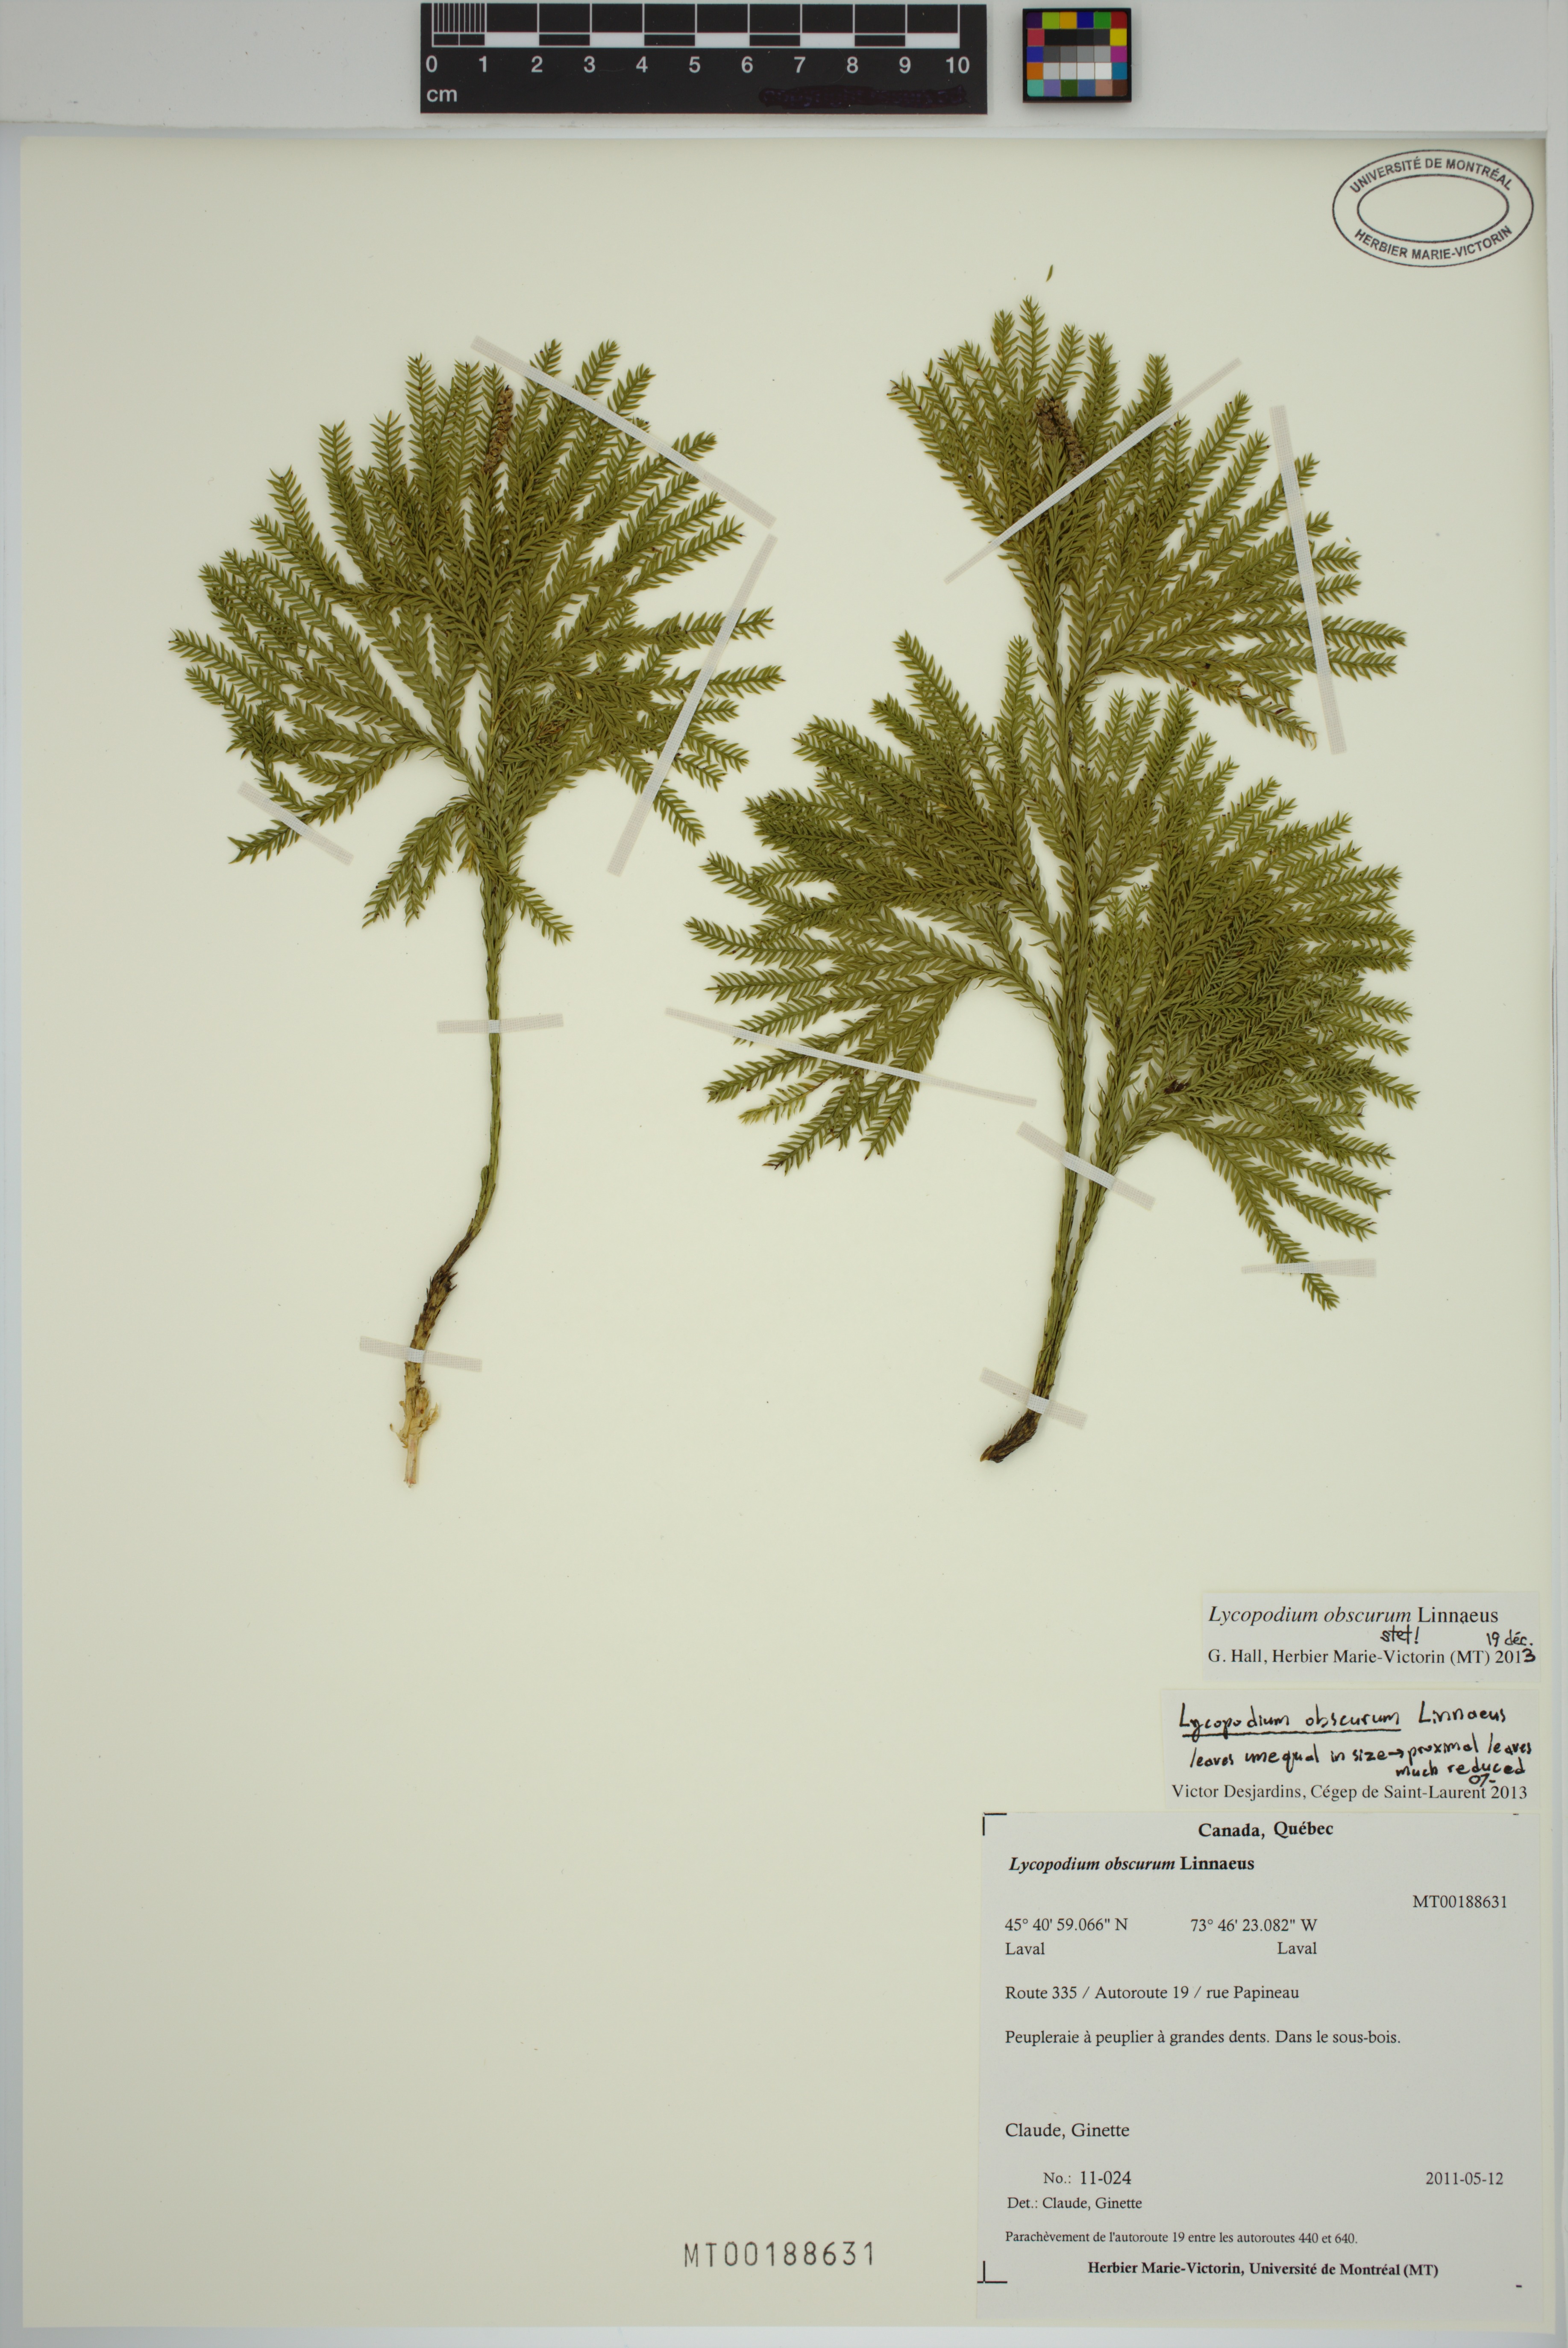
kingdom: Plantae
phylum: Tracheophyta
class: Lycopodiopsida
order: Lycopodiales
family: Lycopodiaceae
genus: Dendrolycopodium
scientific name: Dendrolycopodium obscurum
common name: Common ground-pine
